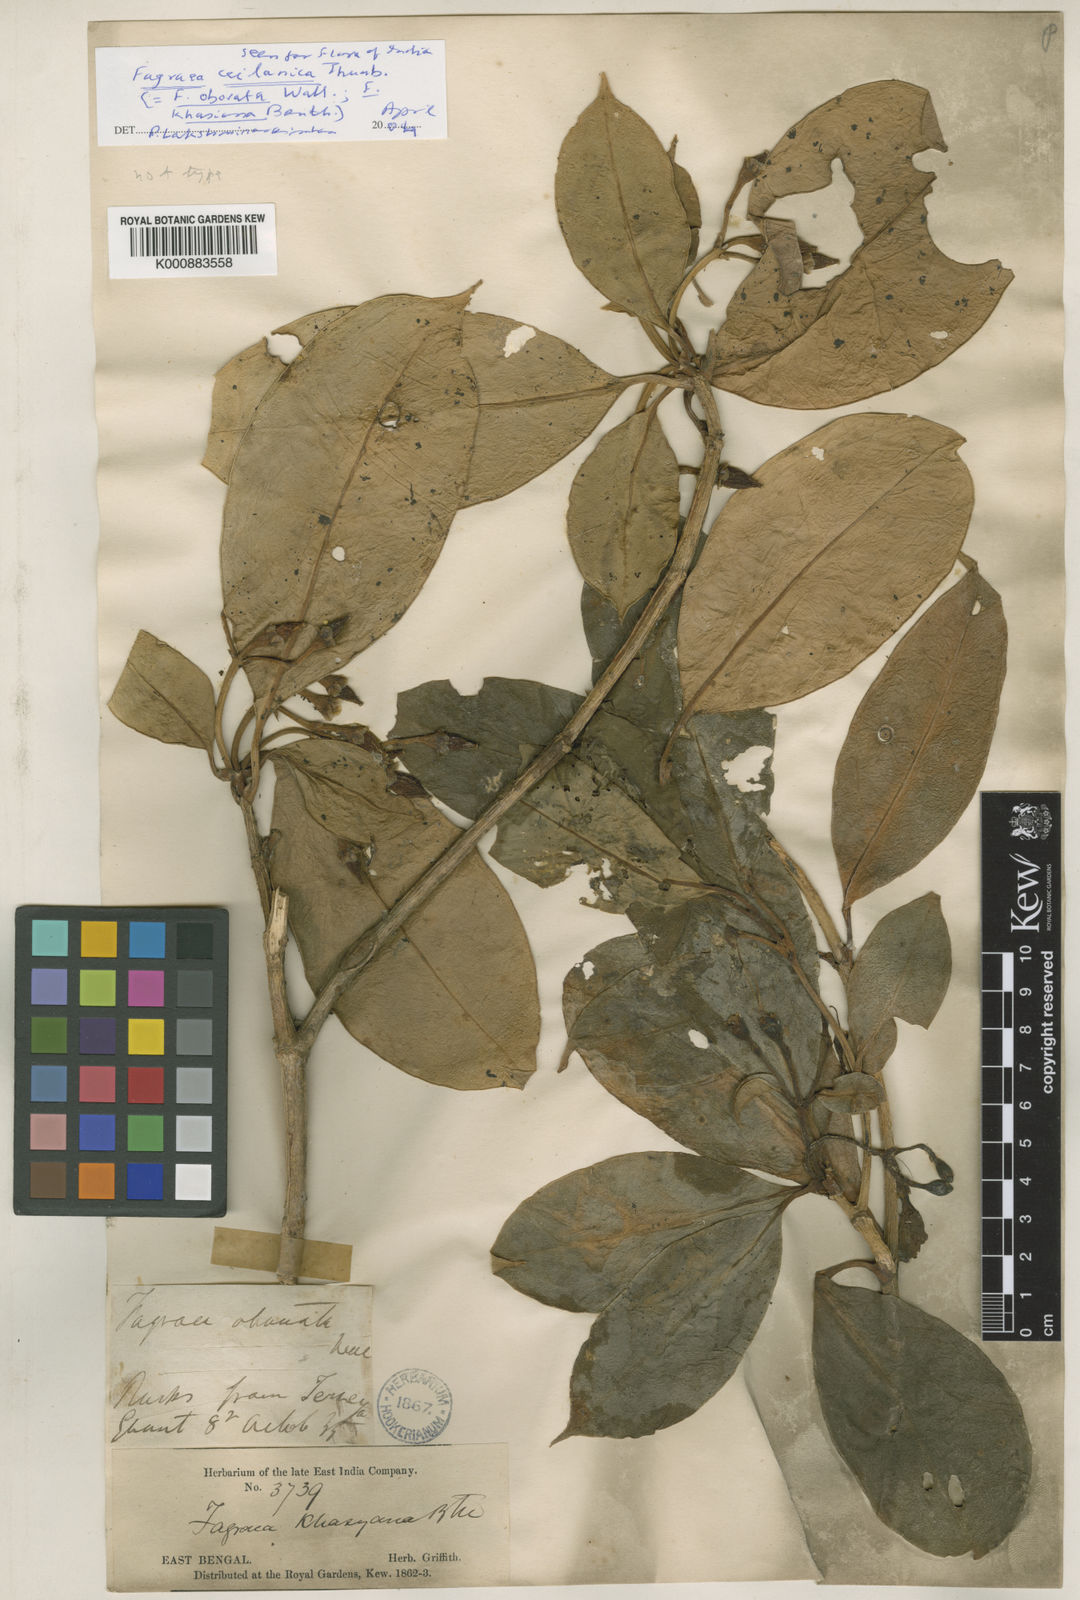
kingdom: Plantae
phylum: Tracheophyta
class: Magnoliopsida
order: Gentianales
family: Gentianaceae
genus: Fagraea
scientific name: Fagraea ceilanica
